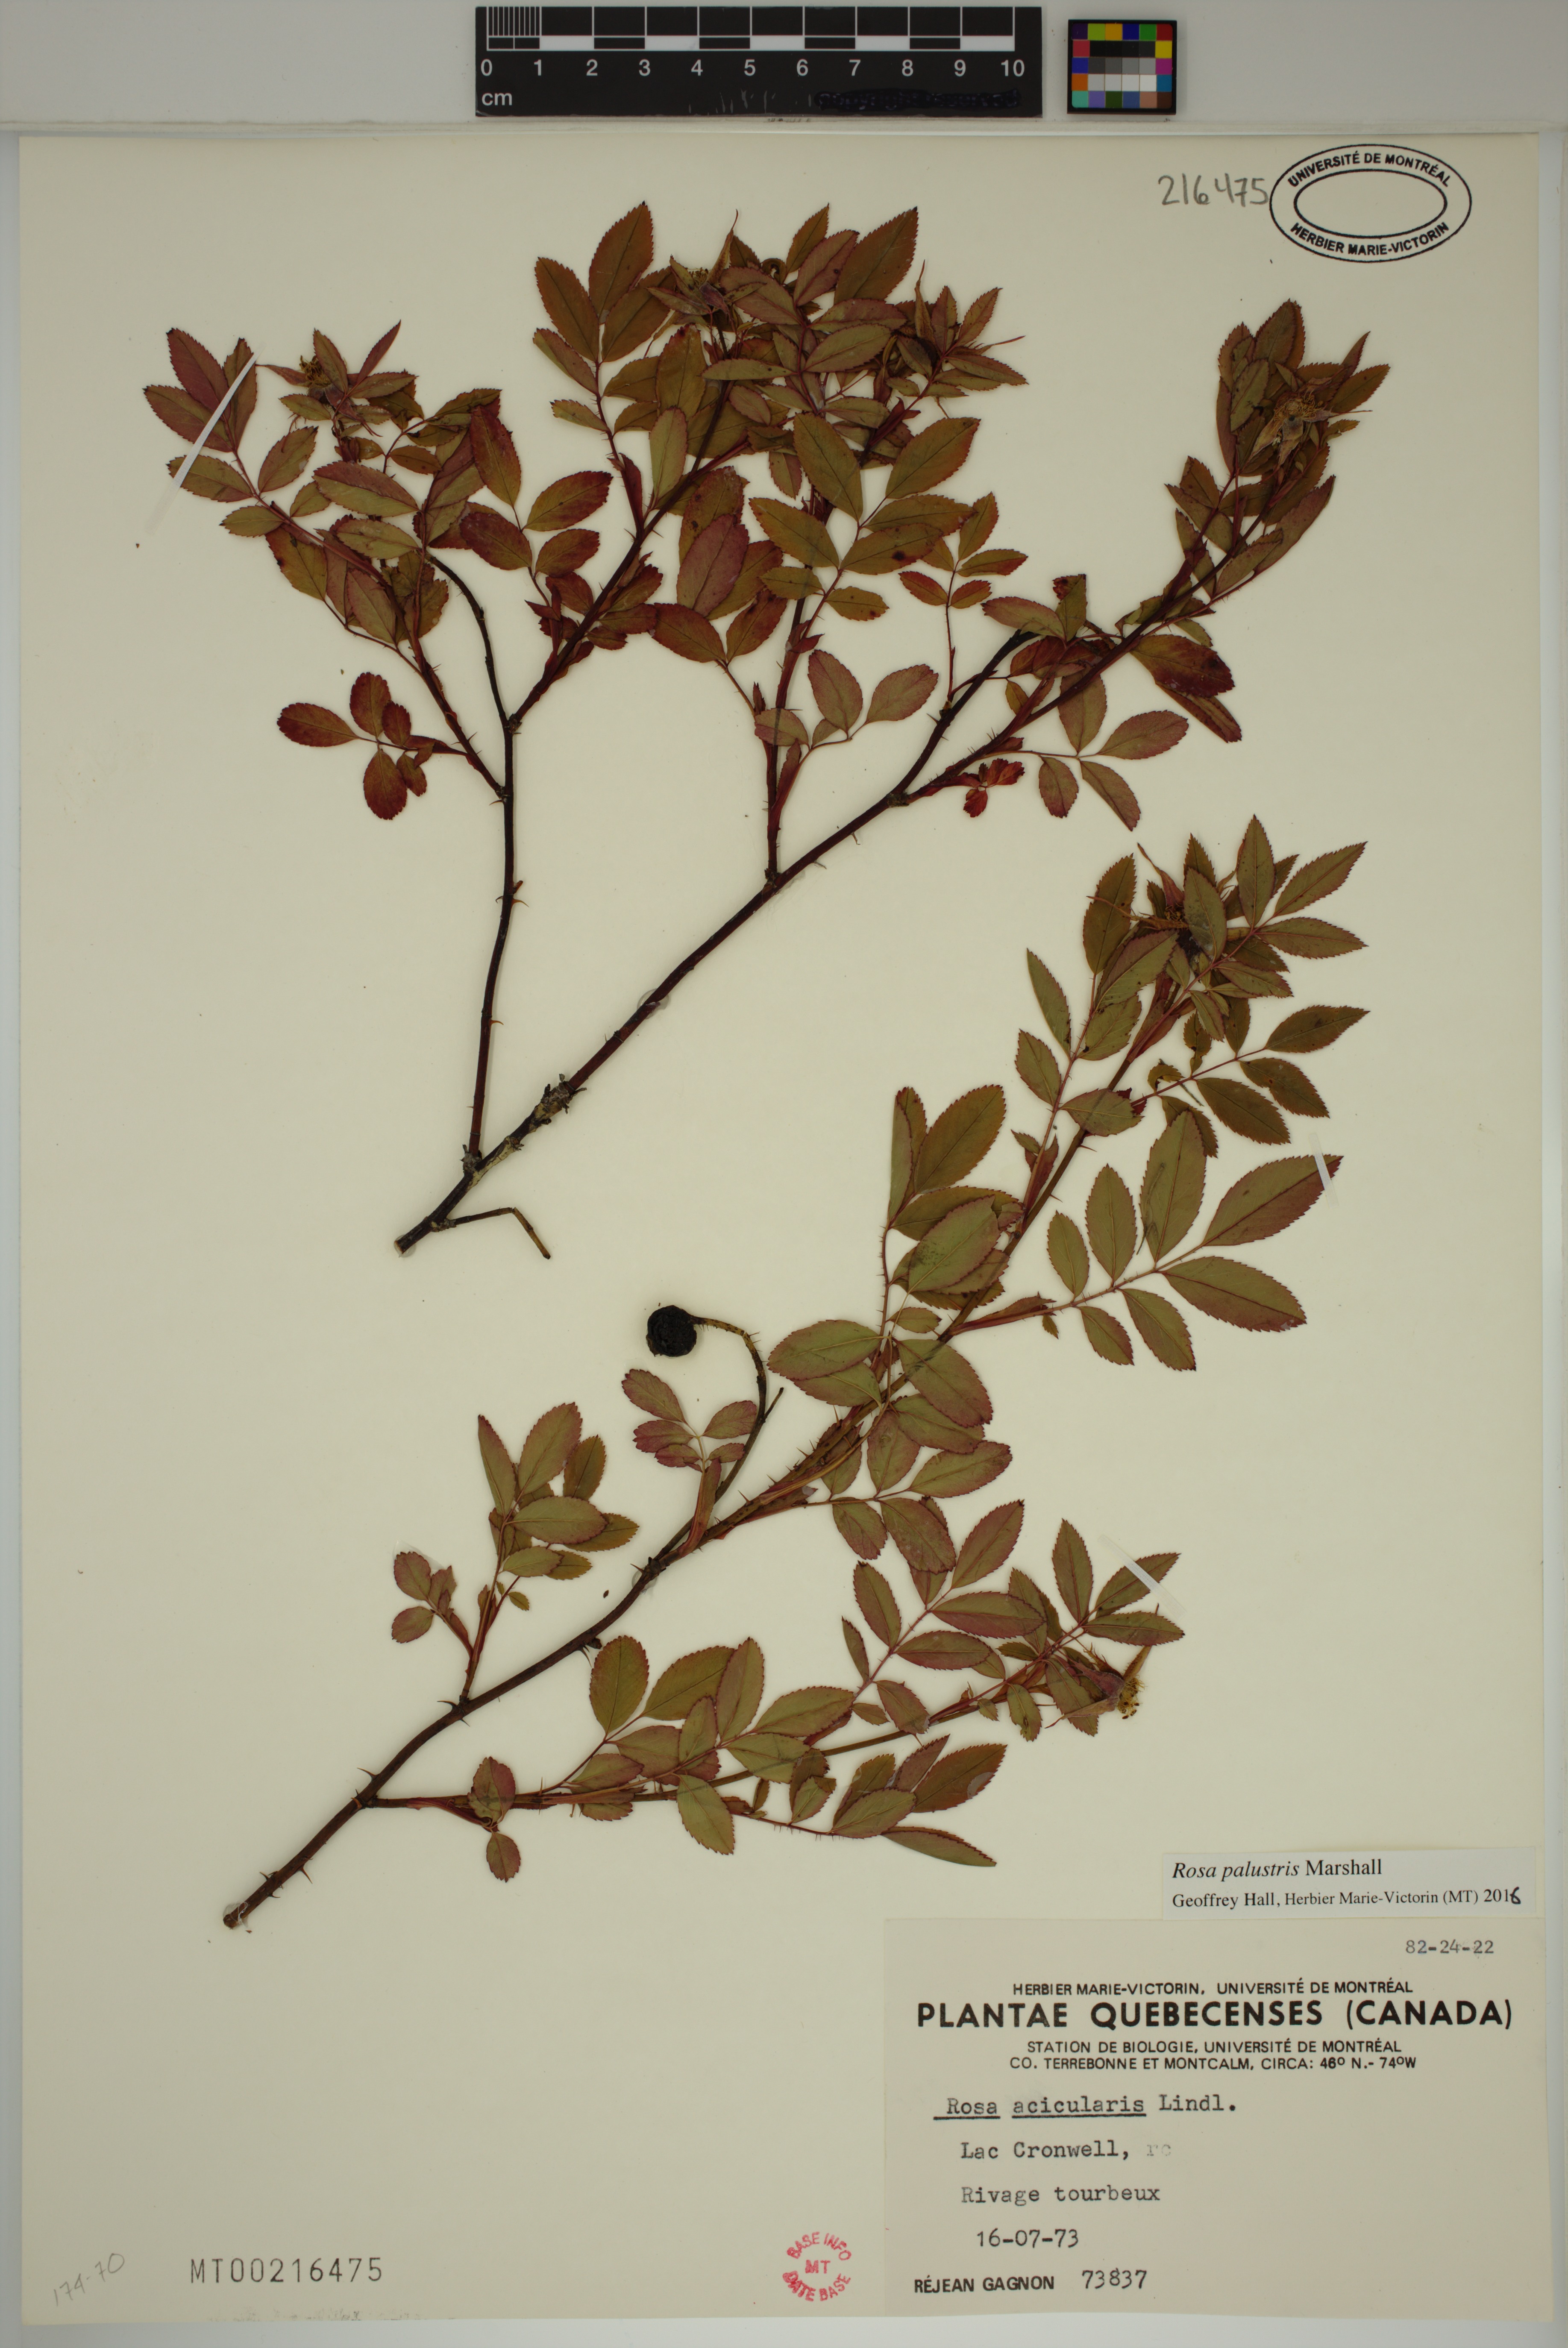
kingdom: Plantae
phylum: Tracheophyta
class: Magnoliopsida
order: Rosales
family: Rosaceae
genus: Rosa
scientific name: Rosa palustris
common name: Swamp rose
